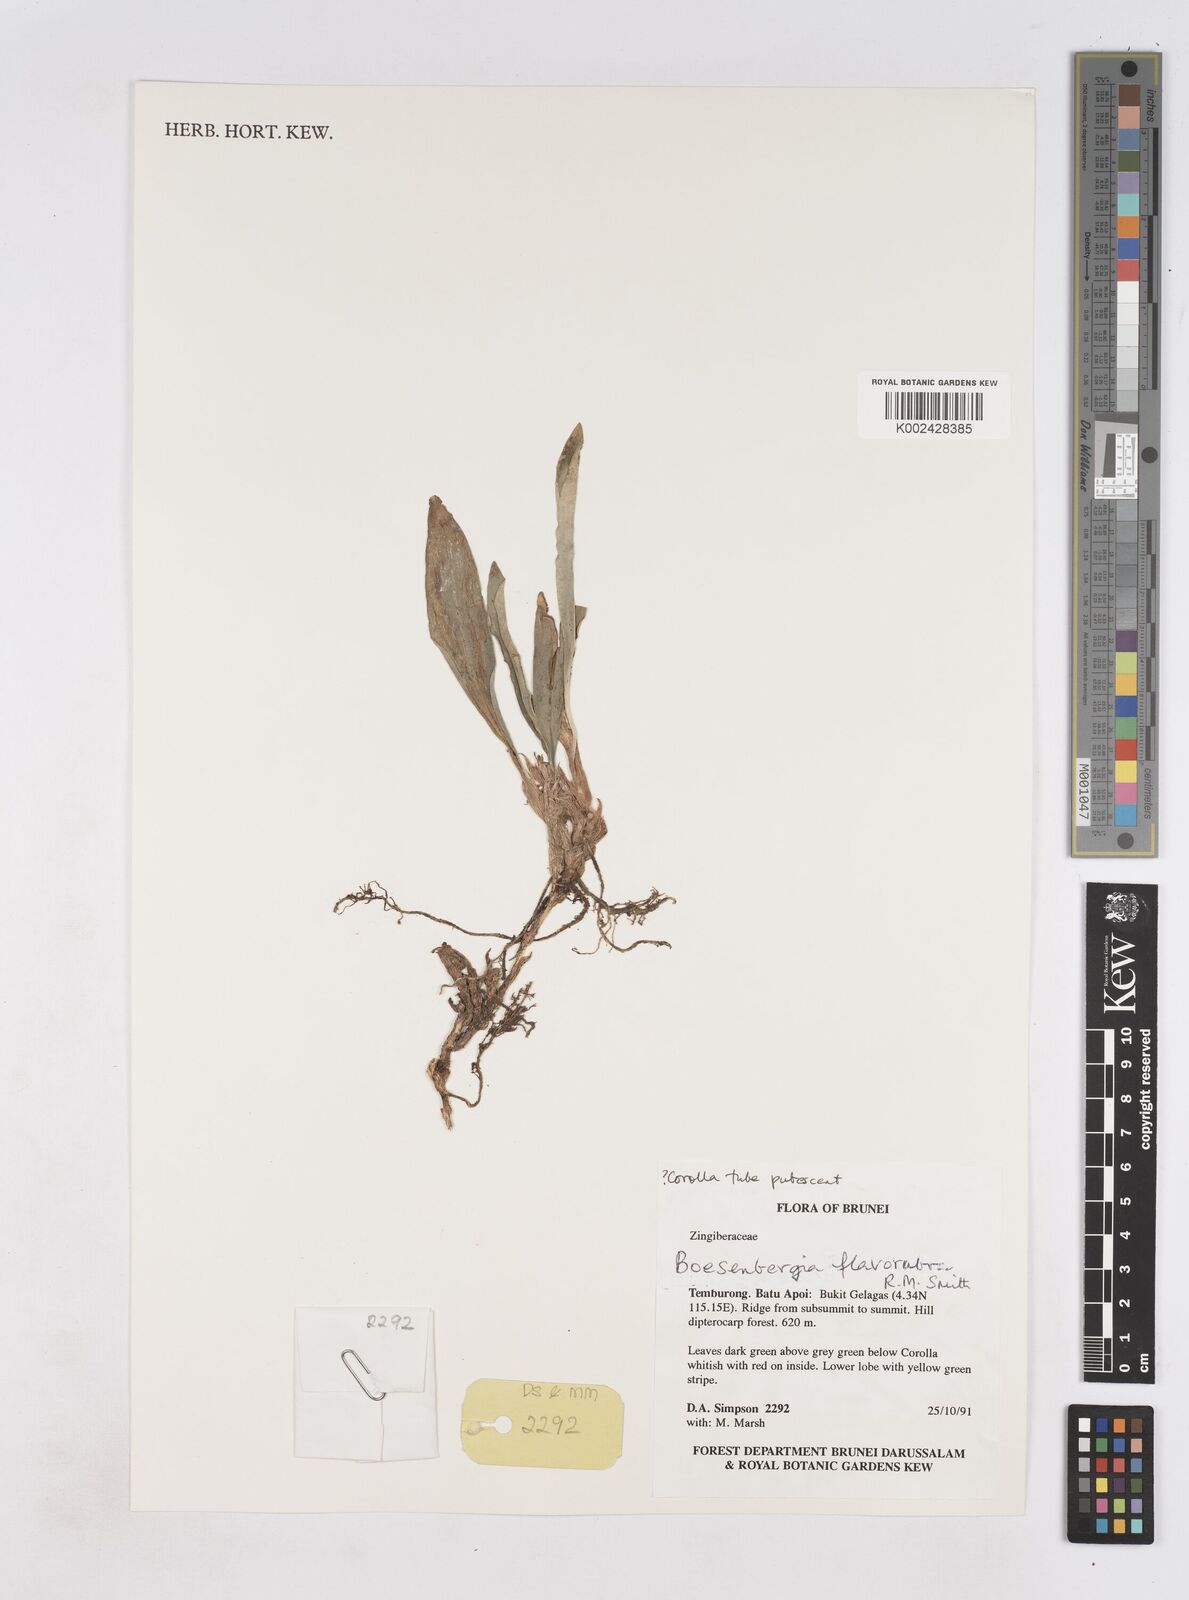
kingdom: Plantae
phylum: Tracheophyta
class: Liliopsida
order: Zingiberales
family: Zingiberaceae
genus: Boesenbergia
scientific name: Boesenbergia flavorubra
